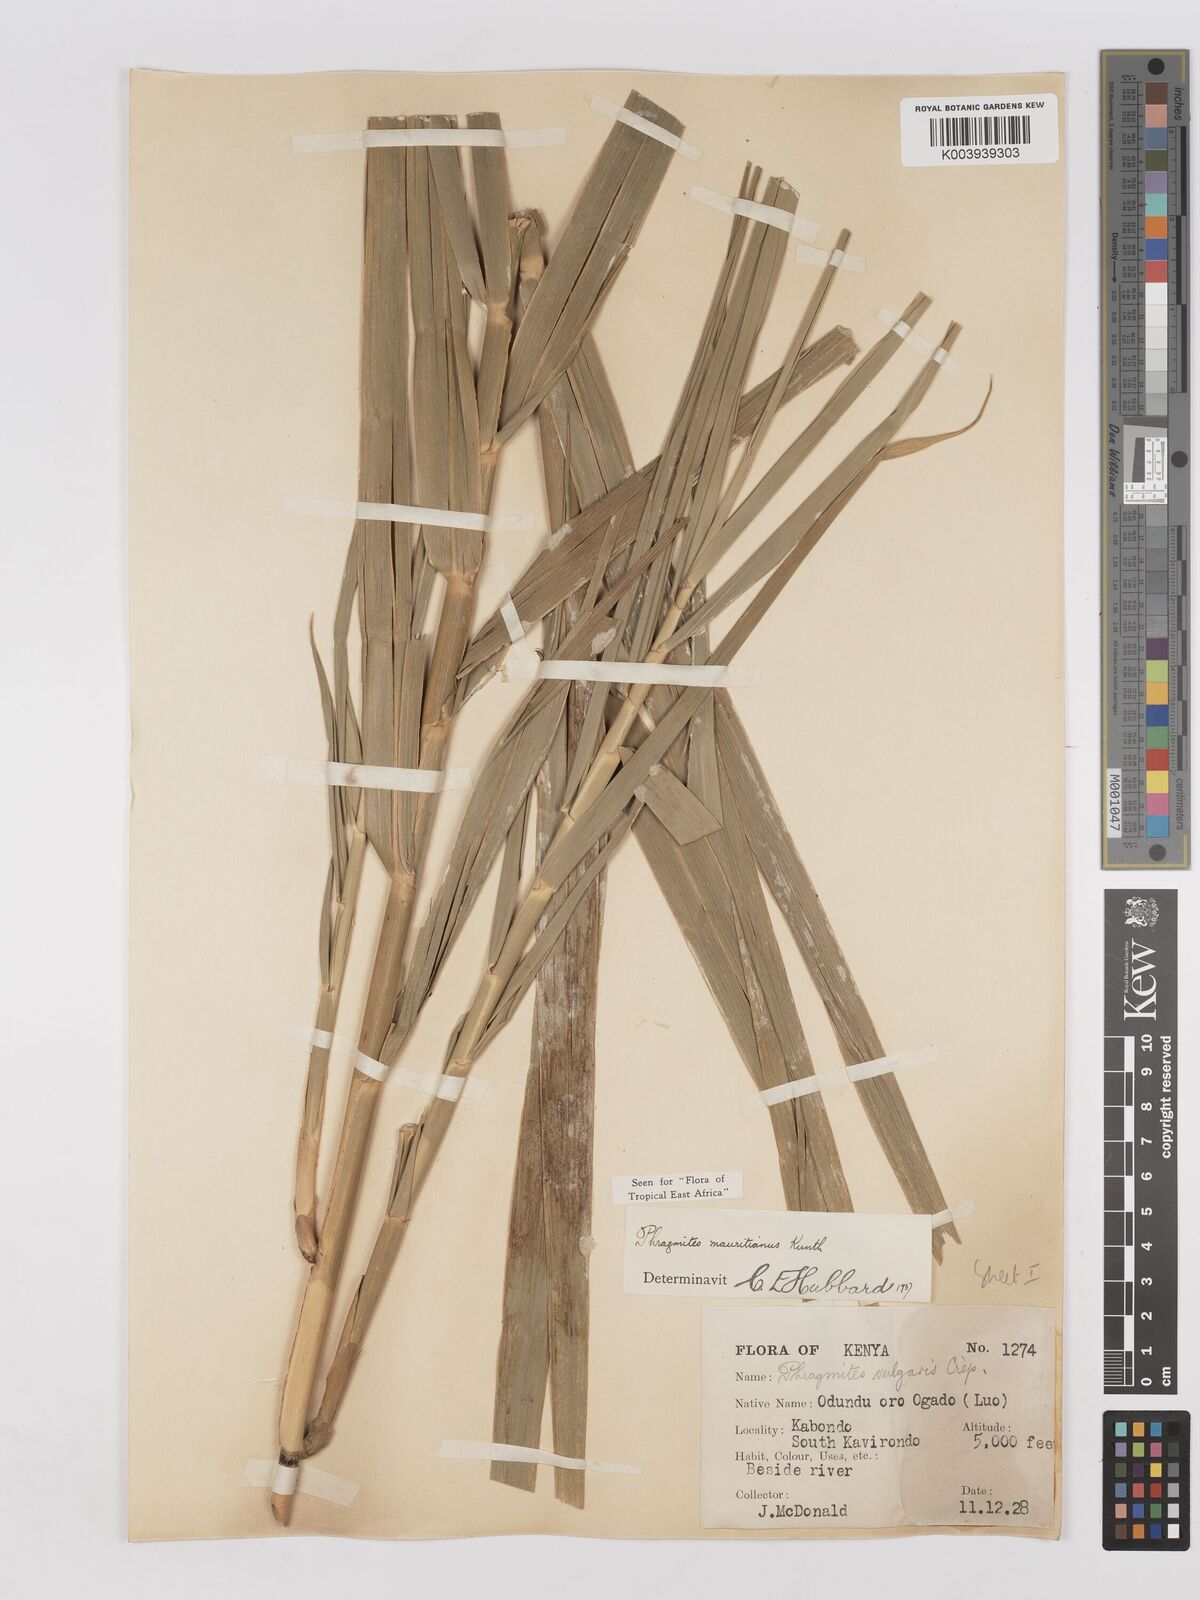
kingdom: Plantae
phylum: Tracheophyta
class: Liliopsida
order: Poales
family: Poaceae
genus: Phragmites
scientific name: Phragmites mauritianus
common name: Reed grass
